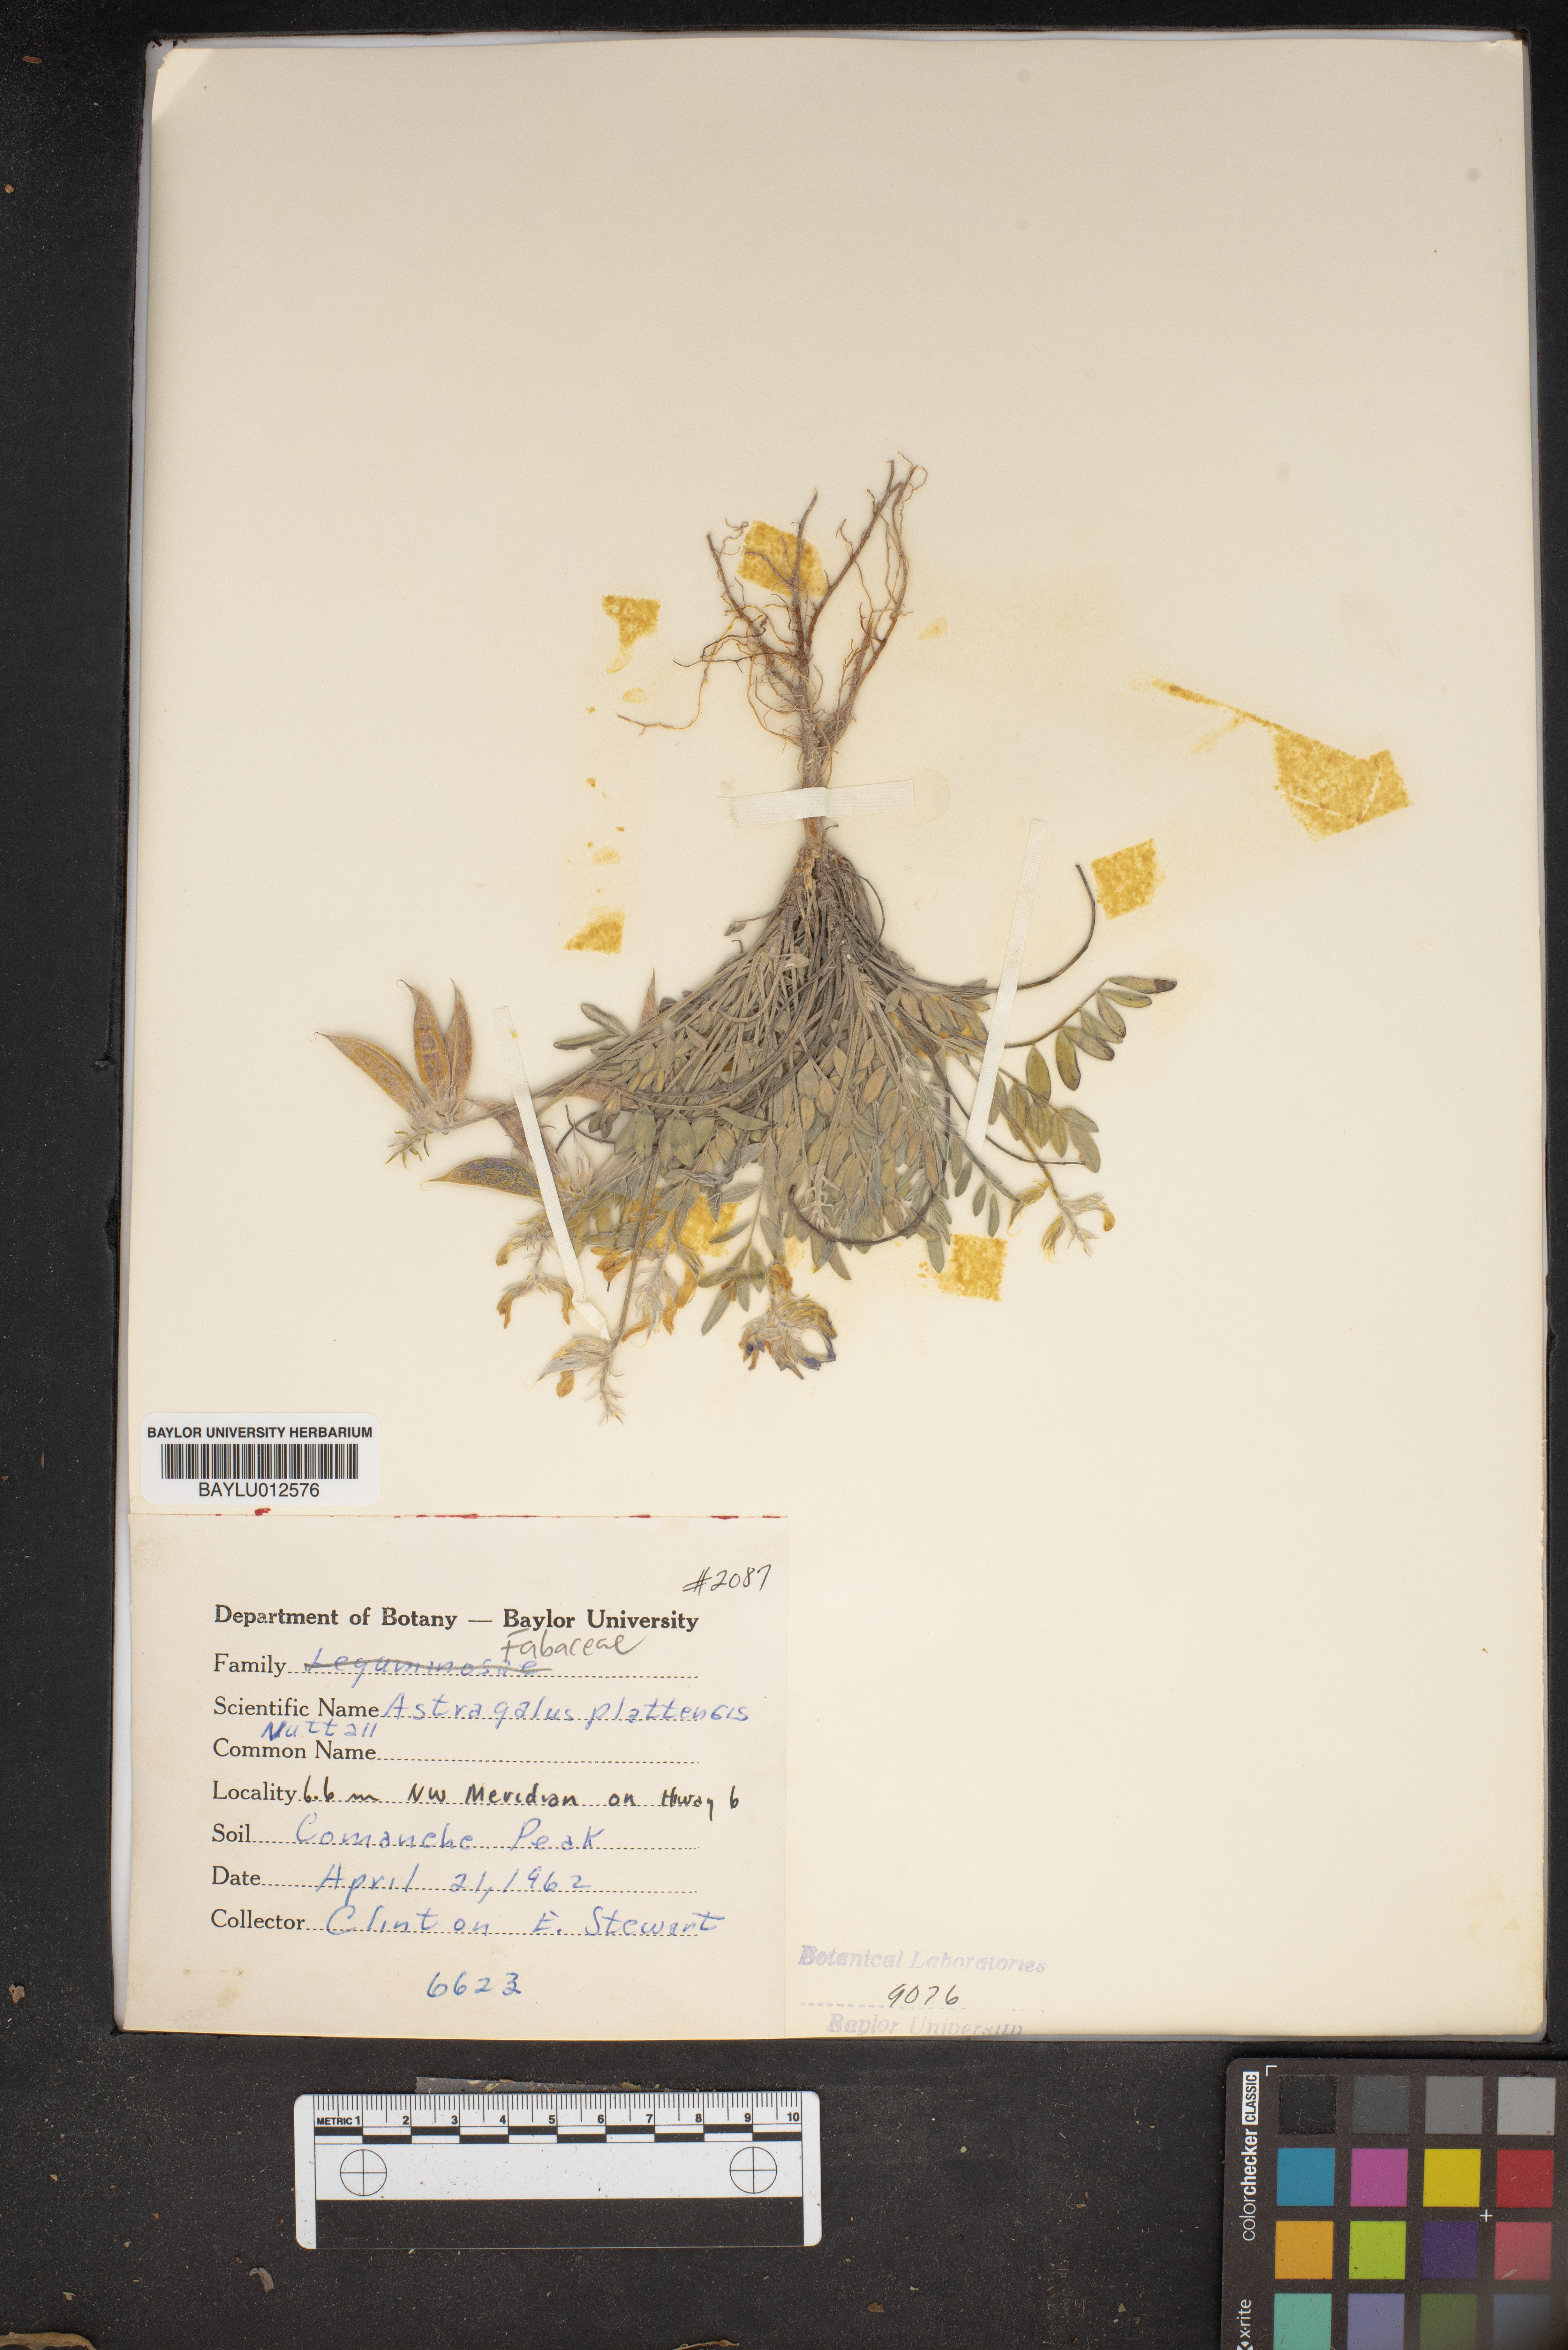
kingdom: Plantae
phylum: Tracheophyta
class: Magnoliopsida
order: Fabales
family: Fabaceae
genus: Astragalus
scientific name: Astragalus plattensis
